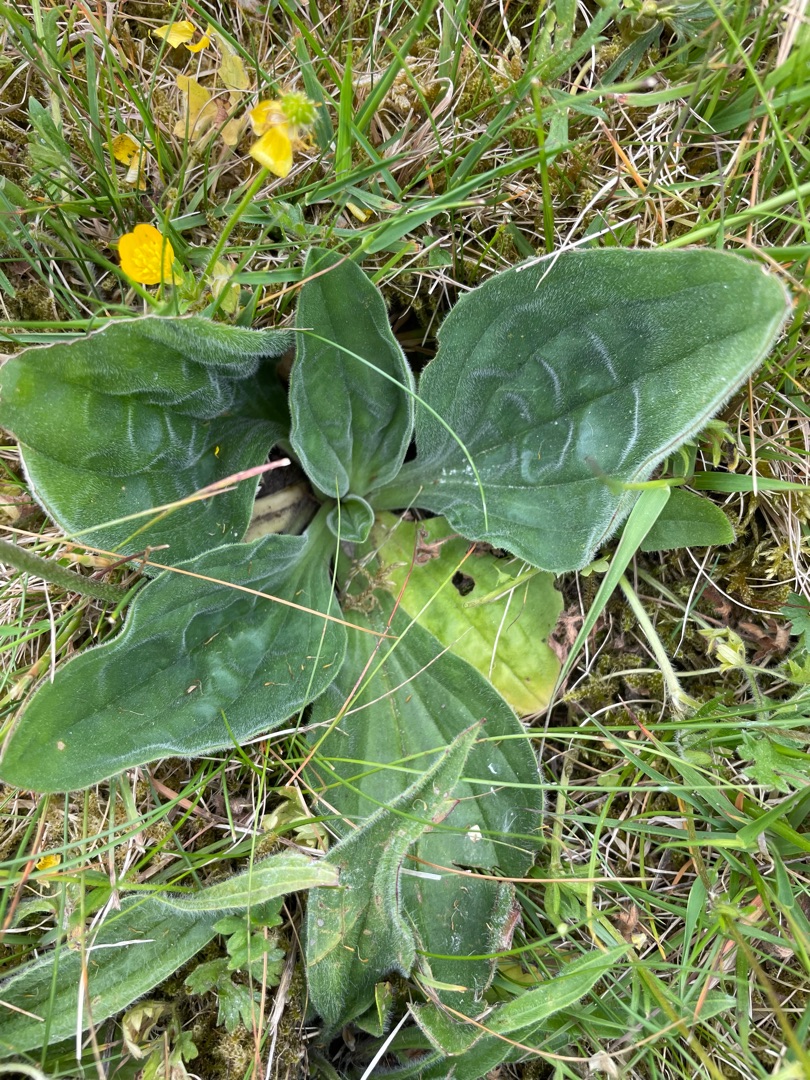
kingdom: Plantae
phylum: Tracheophyta
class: Magnoliopsida
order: Lamiales
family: Plantaginaceae
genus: Plantago
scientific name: Plantago media
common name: Dunet vejbred
